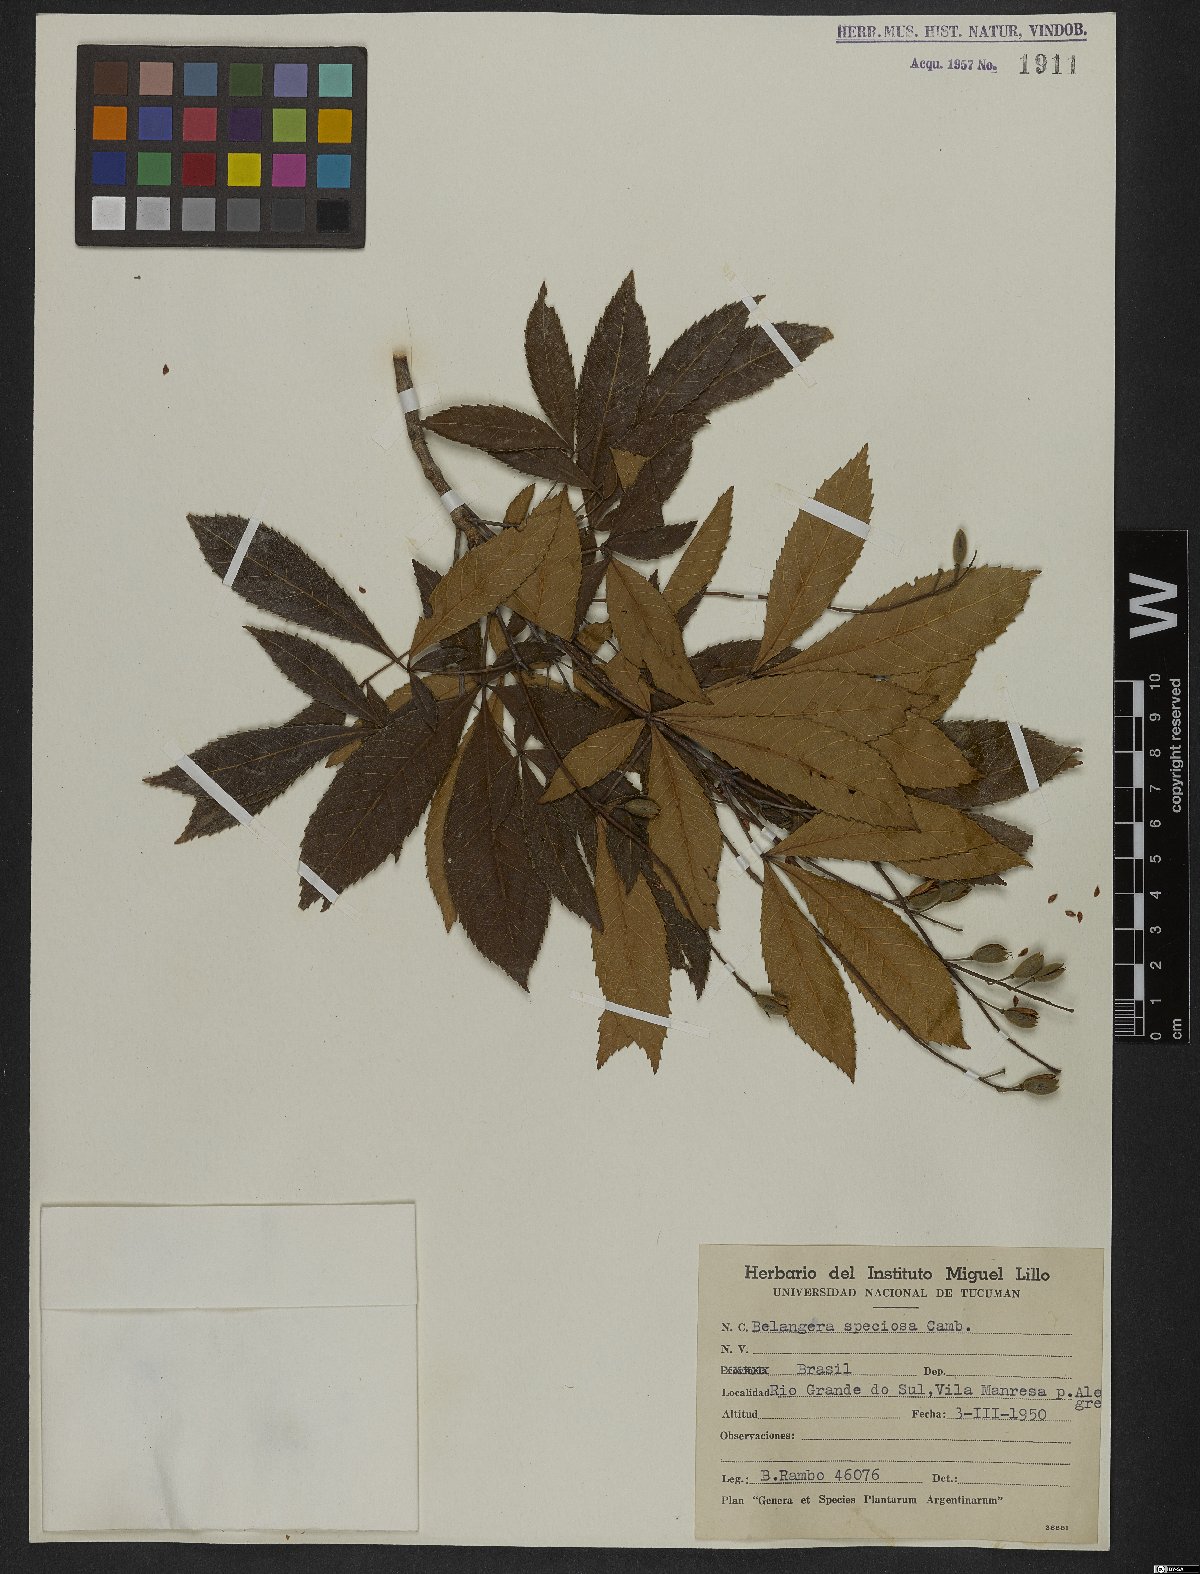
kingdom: Plantae
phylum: Tracheophyta
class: Magnoliopsida
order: Oxalidales
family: Cunoniaceae
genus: Lamanonia
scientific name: Lamanonia speciosa
